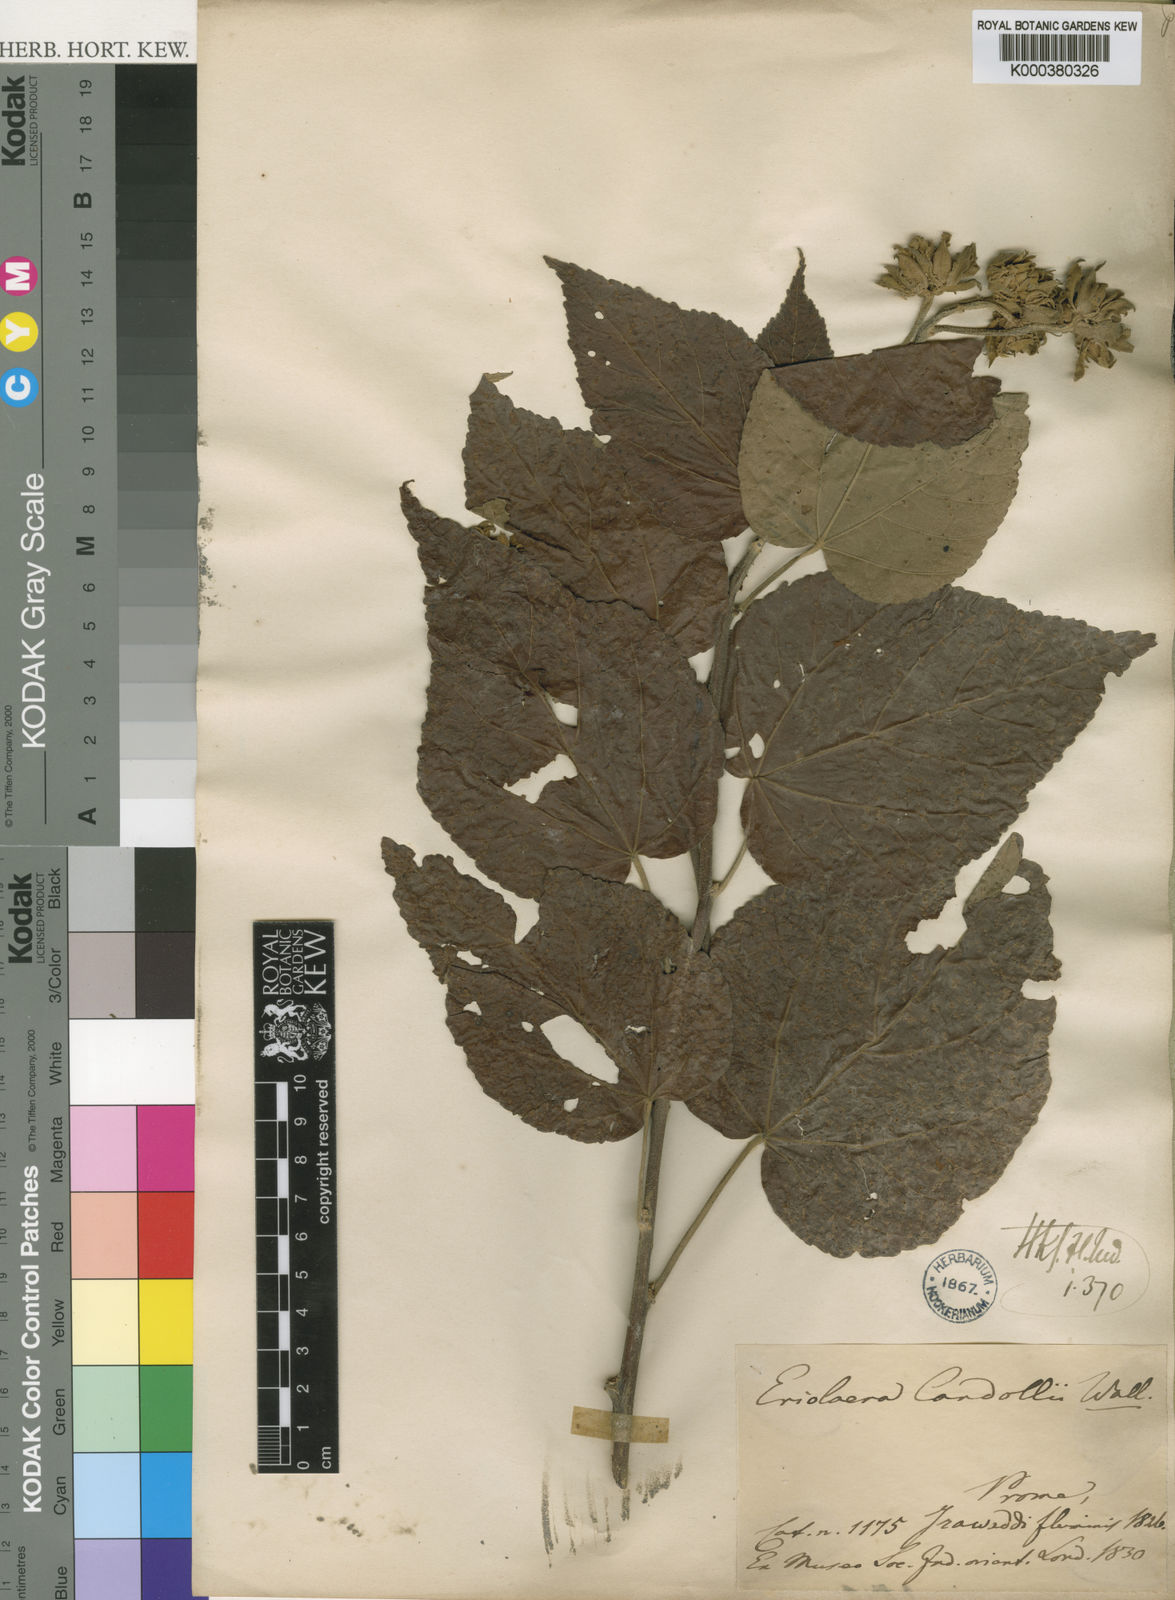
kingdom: Plantae
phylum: Tracheophyta
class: Magnoliopsida
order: Malvales
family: Malvaceae
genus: Eriolaena
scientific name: Eriolaena candollei
